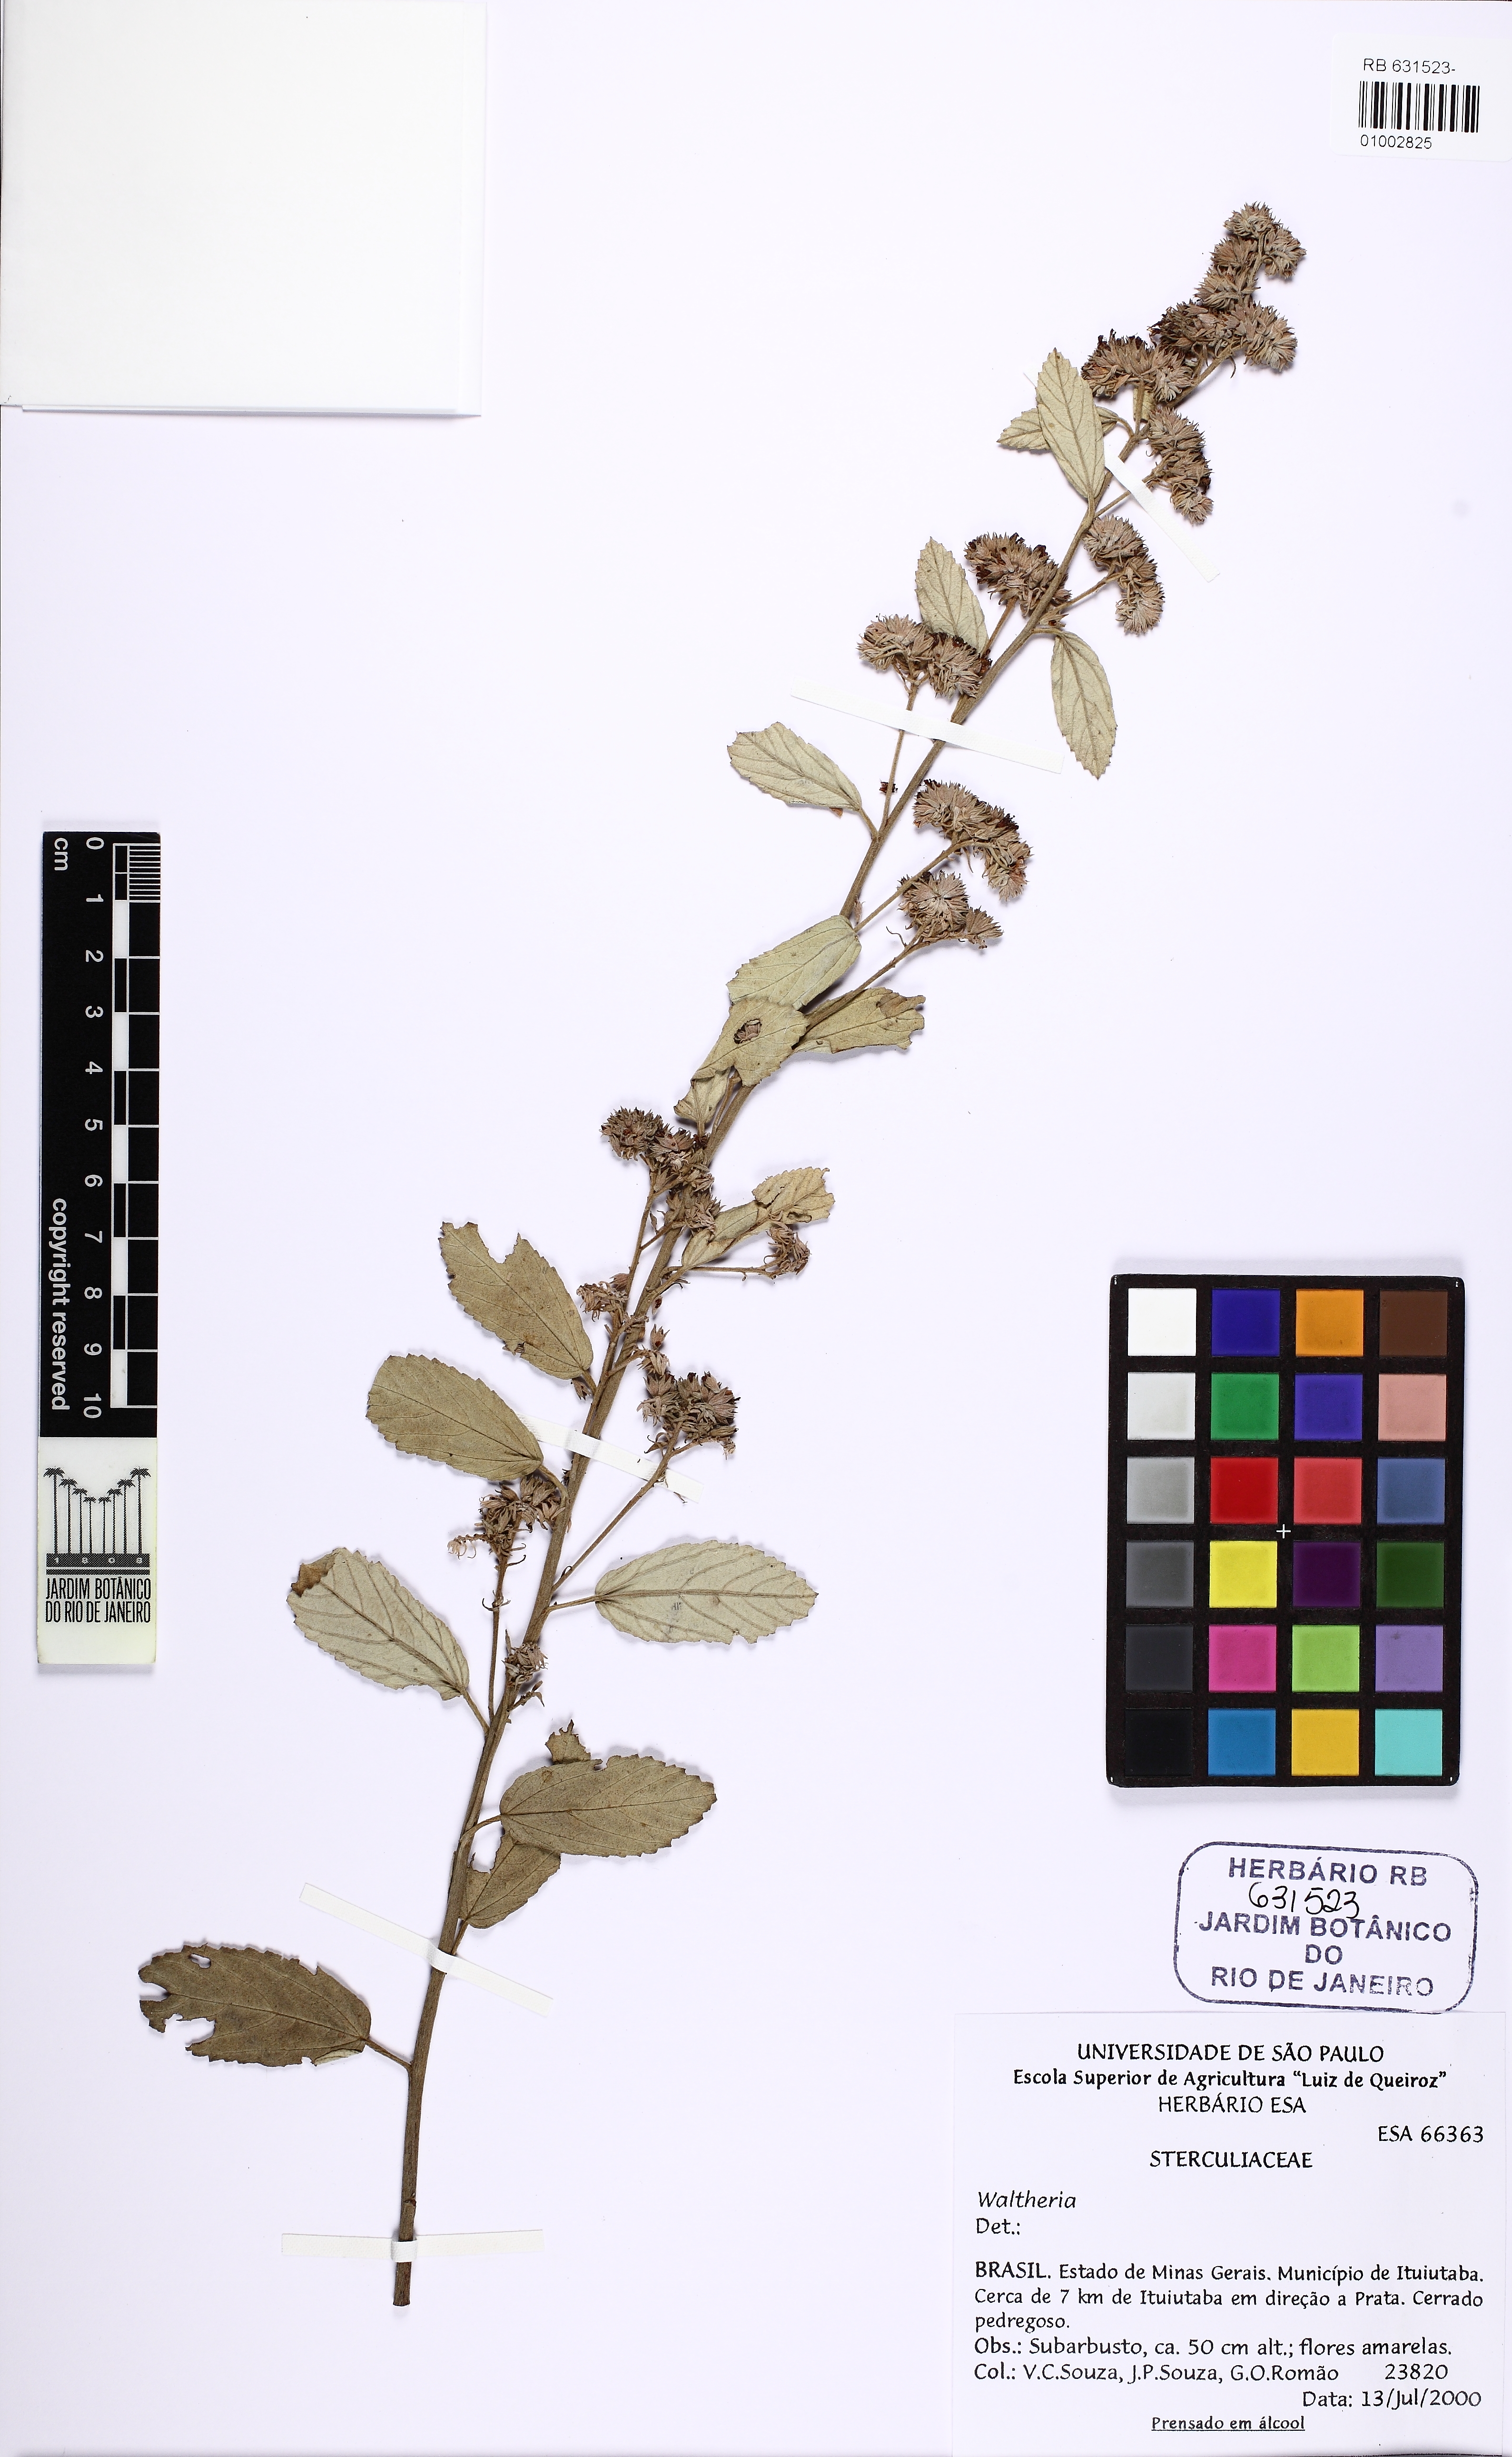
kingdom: Plantae
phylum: Tracheophyta
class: Magnoliopsida
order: Malvales
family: Malvaceae
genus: Waltheria
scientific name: Waltheria communis
